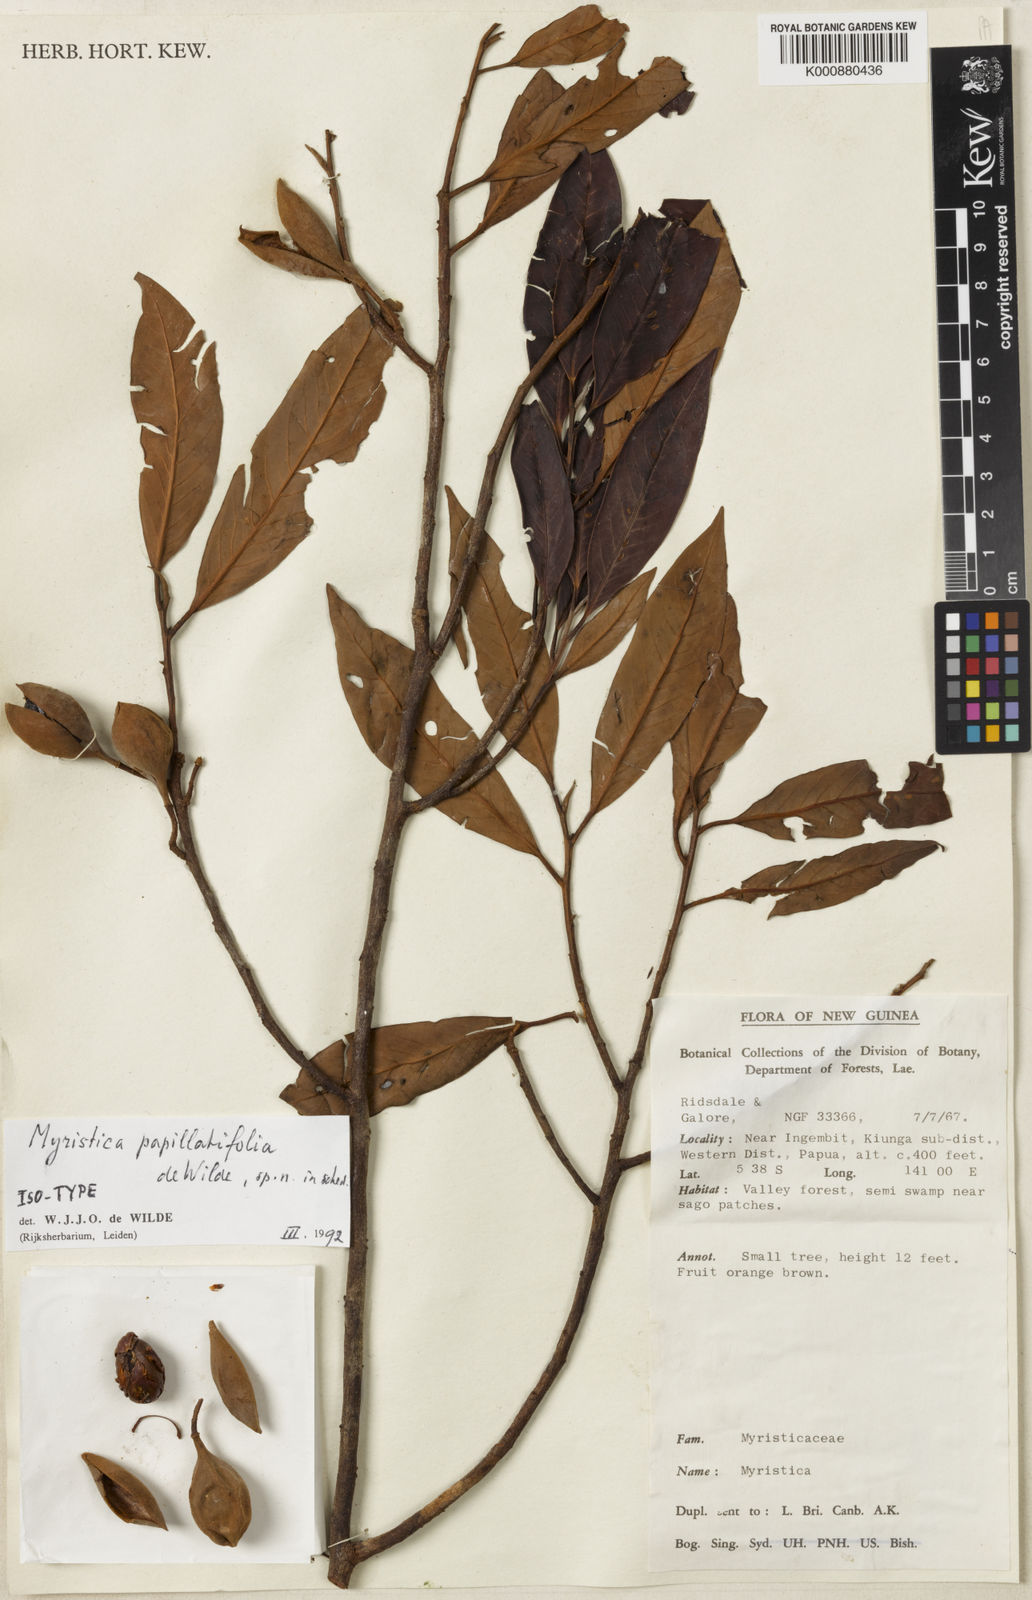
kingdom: Plantae
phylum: Tracheophyta
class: Magnoliopsida
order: Magnoliales
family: Myristicaceae
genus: Myristica
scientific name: Myristica papillatifolia
